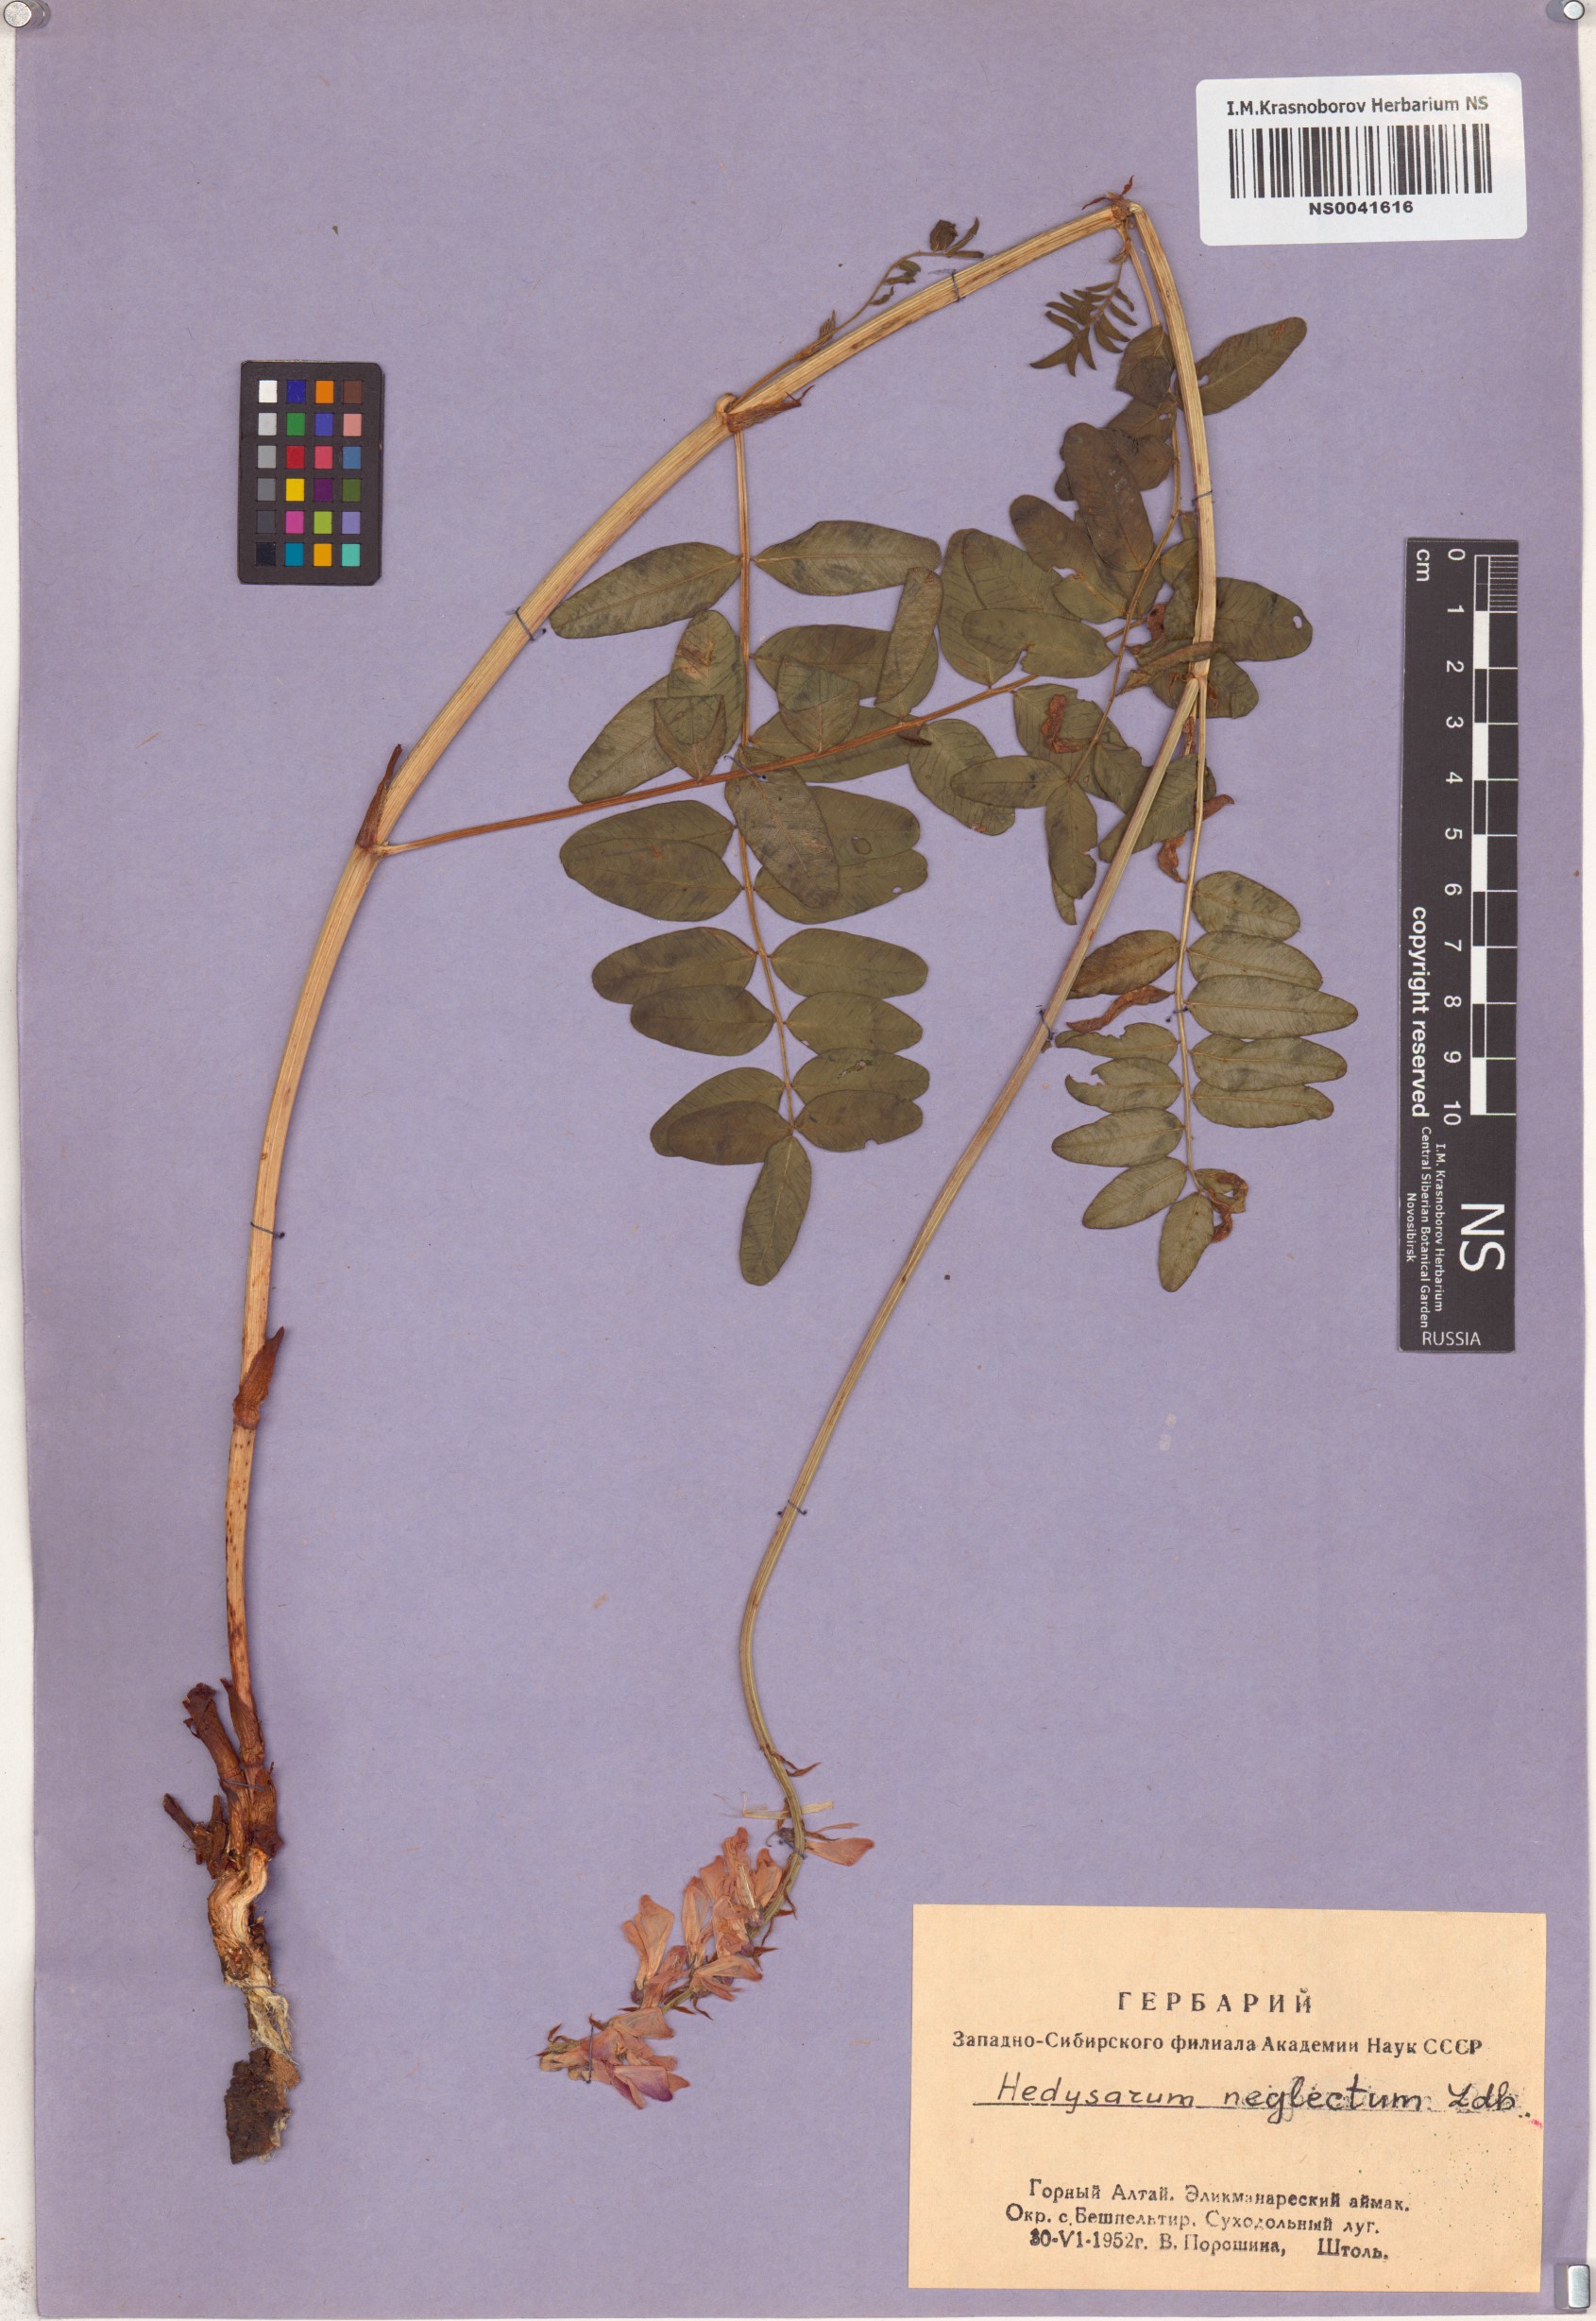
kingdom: Plantae
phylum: Tracheophyta
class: Magnoliopsida
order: Fabales
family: Fabaceae
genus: Hedysarum
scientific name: Hedysarum neglectum
